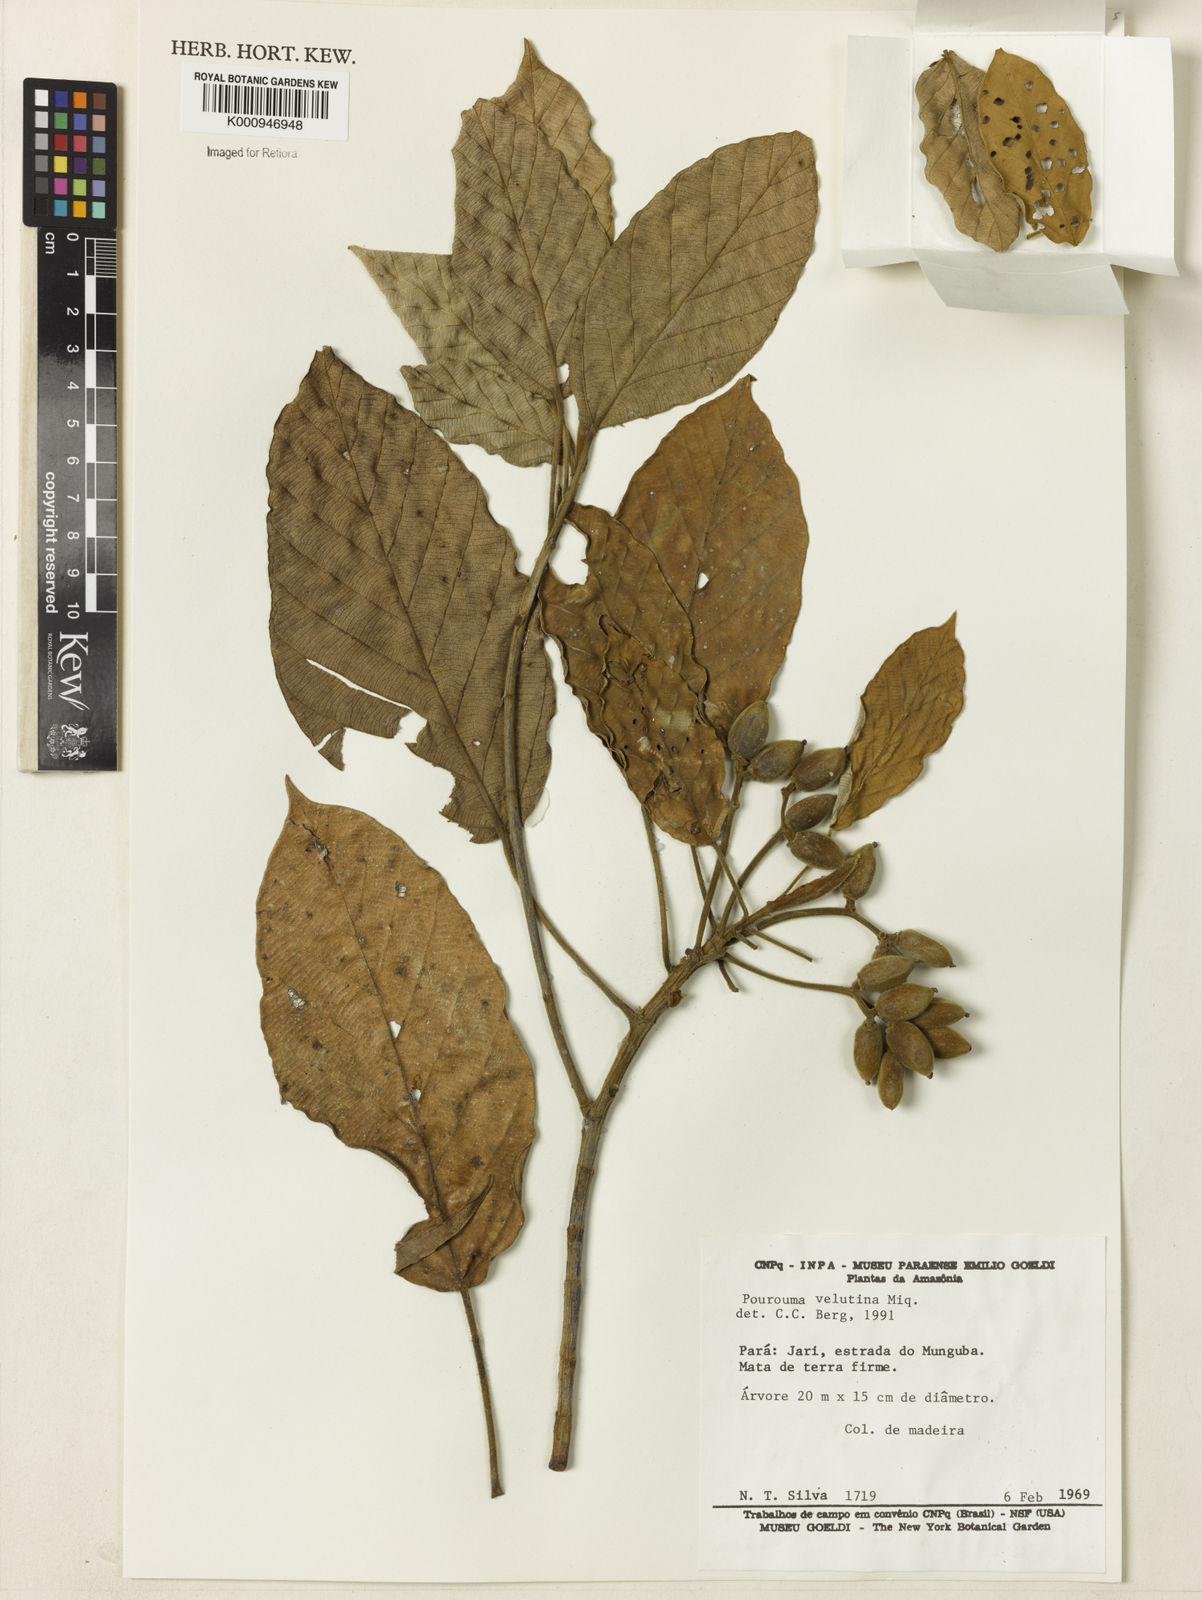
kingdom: Plantae
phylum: Tracheophyta
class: Magnoliopsida
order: Rosales
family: Urticaceae
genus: Pourouma
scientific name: Pourouma velutina
